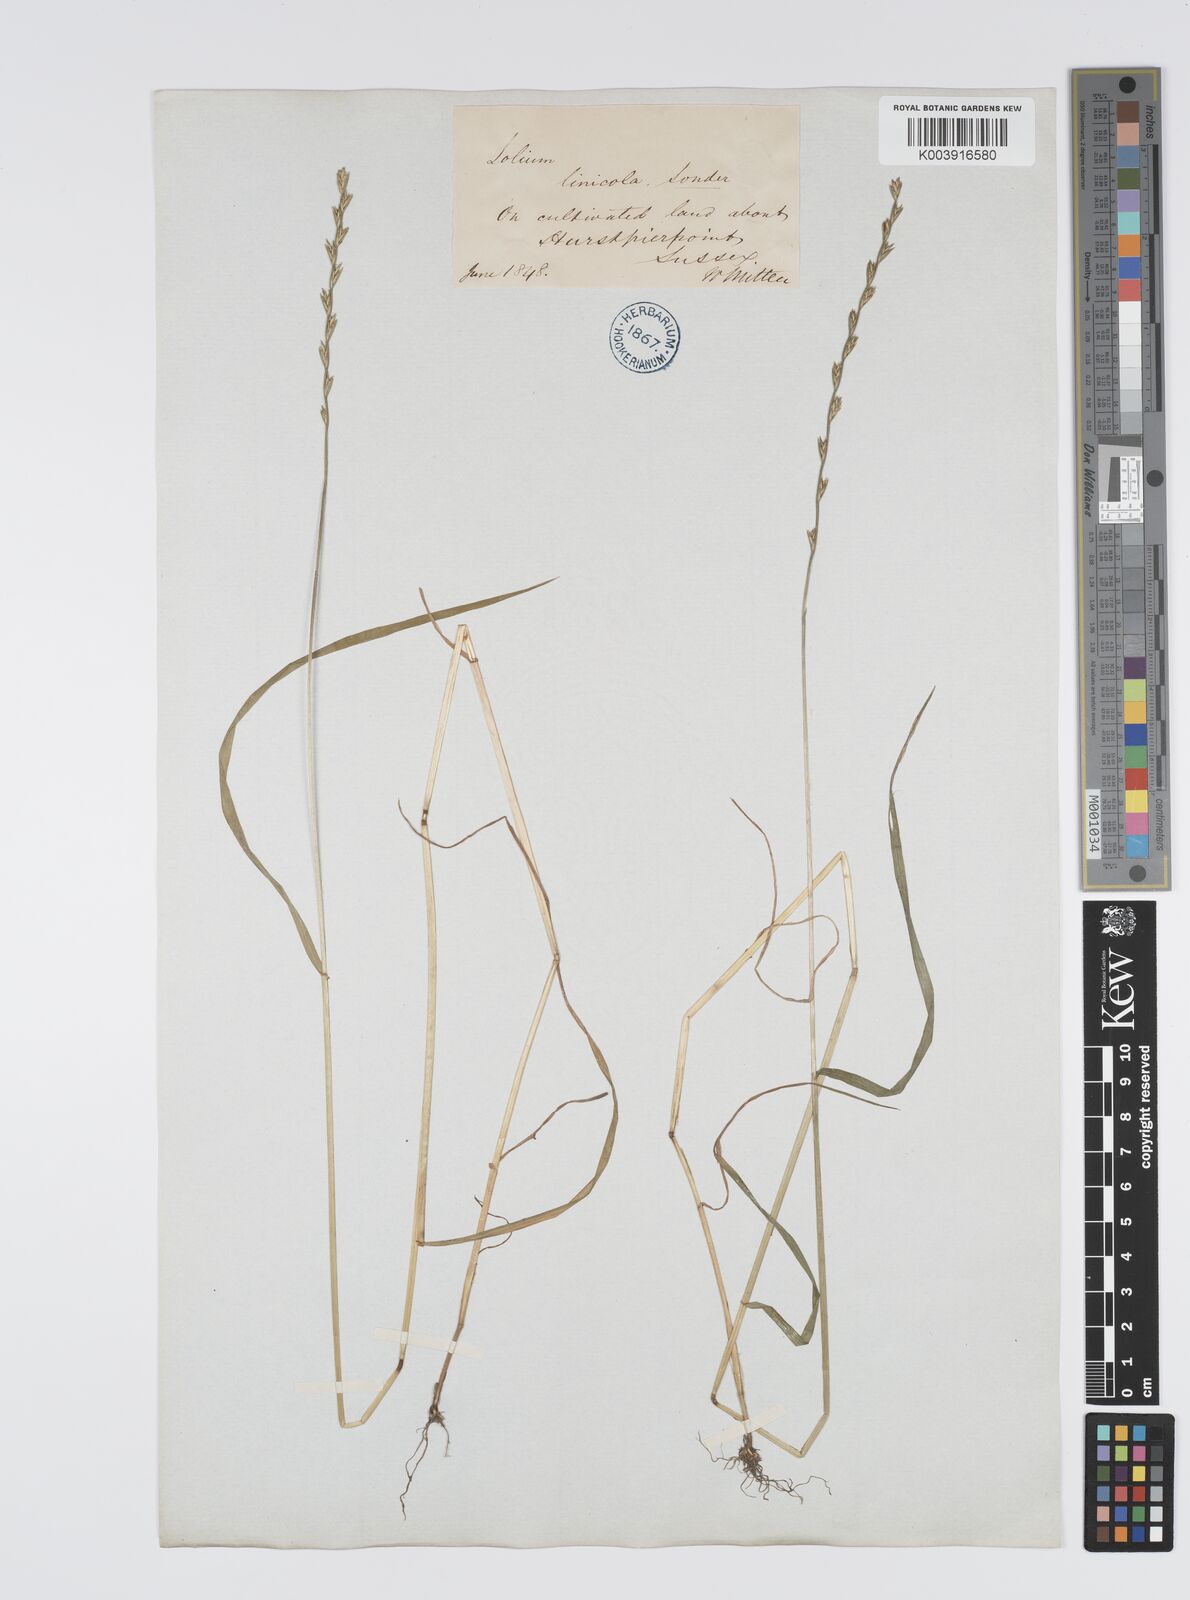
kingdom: Plantae
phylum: Tracheophyta
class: Liliopsida
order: Poales
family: Poaceae
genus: Lolium
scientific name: Lolium remotum
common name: Flaxfield rye-grass
